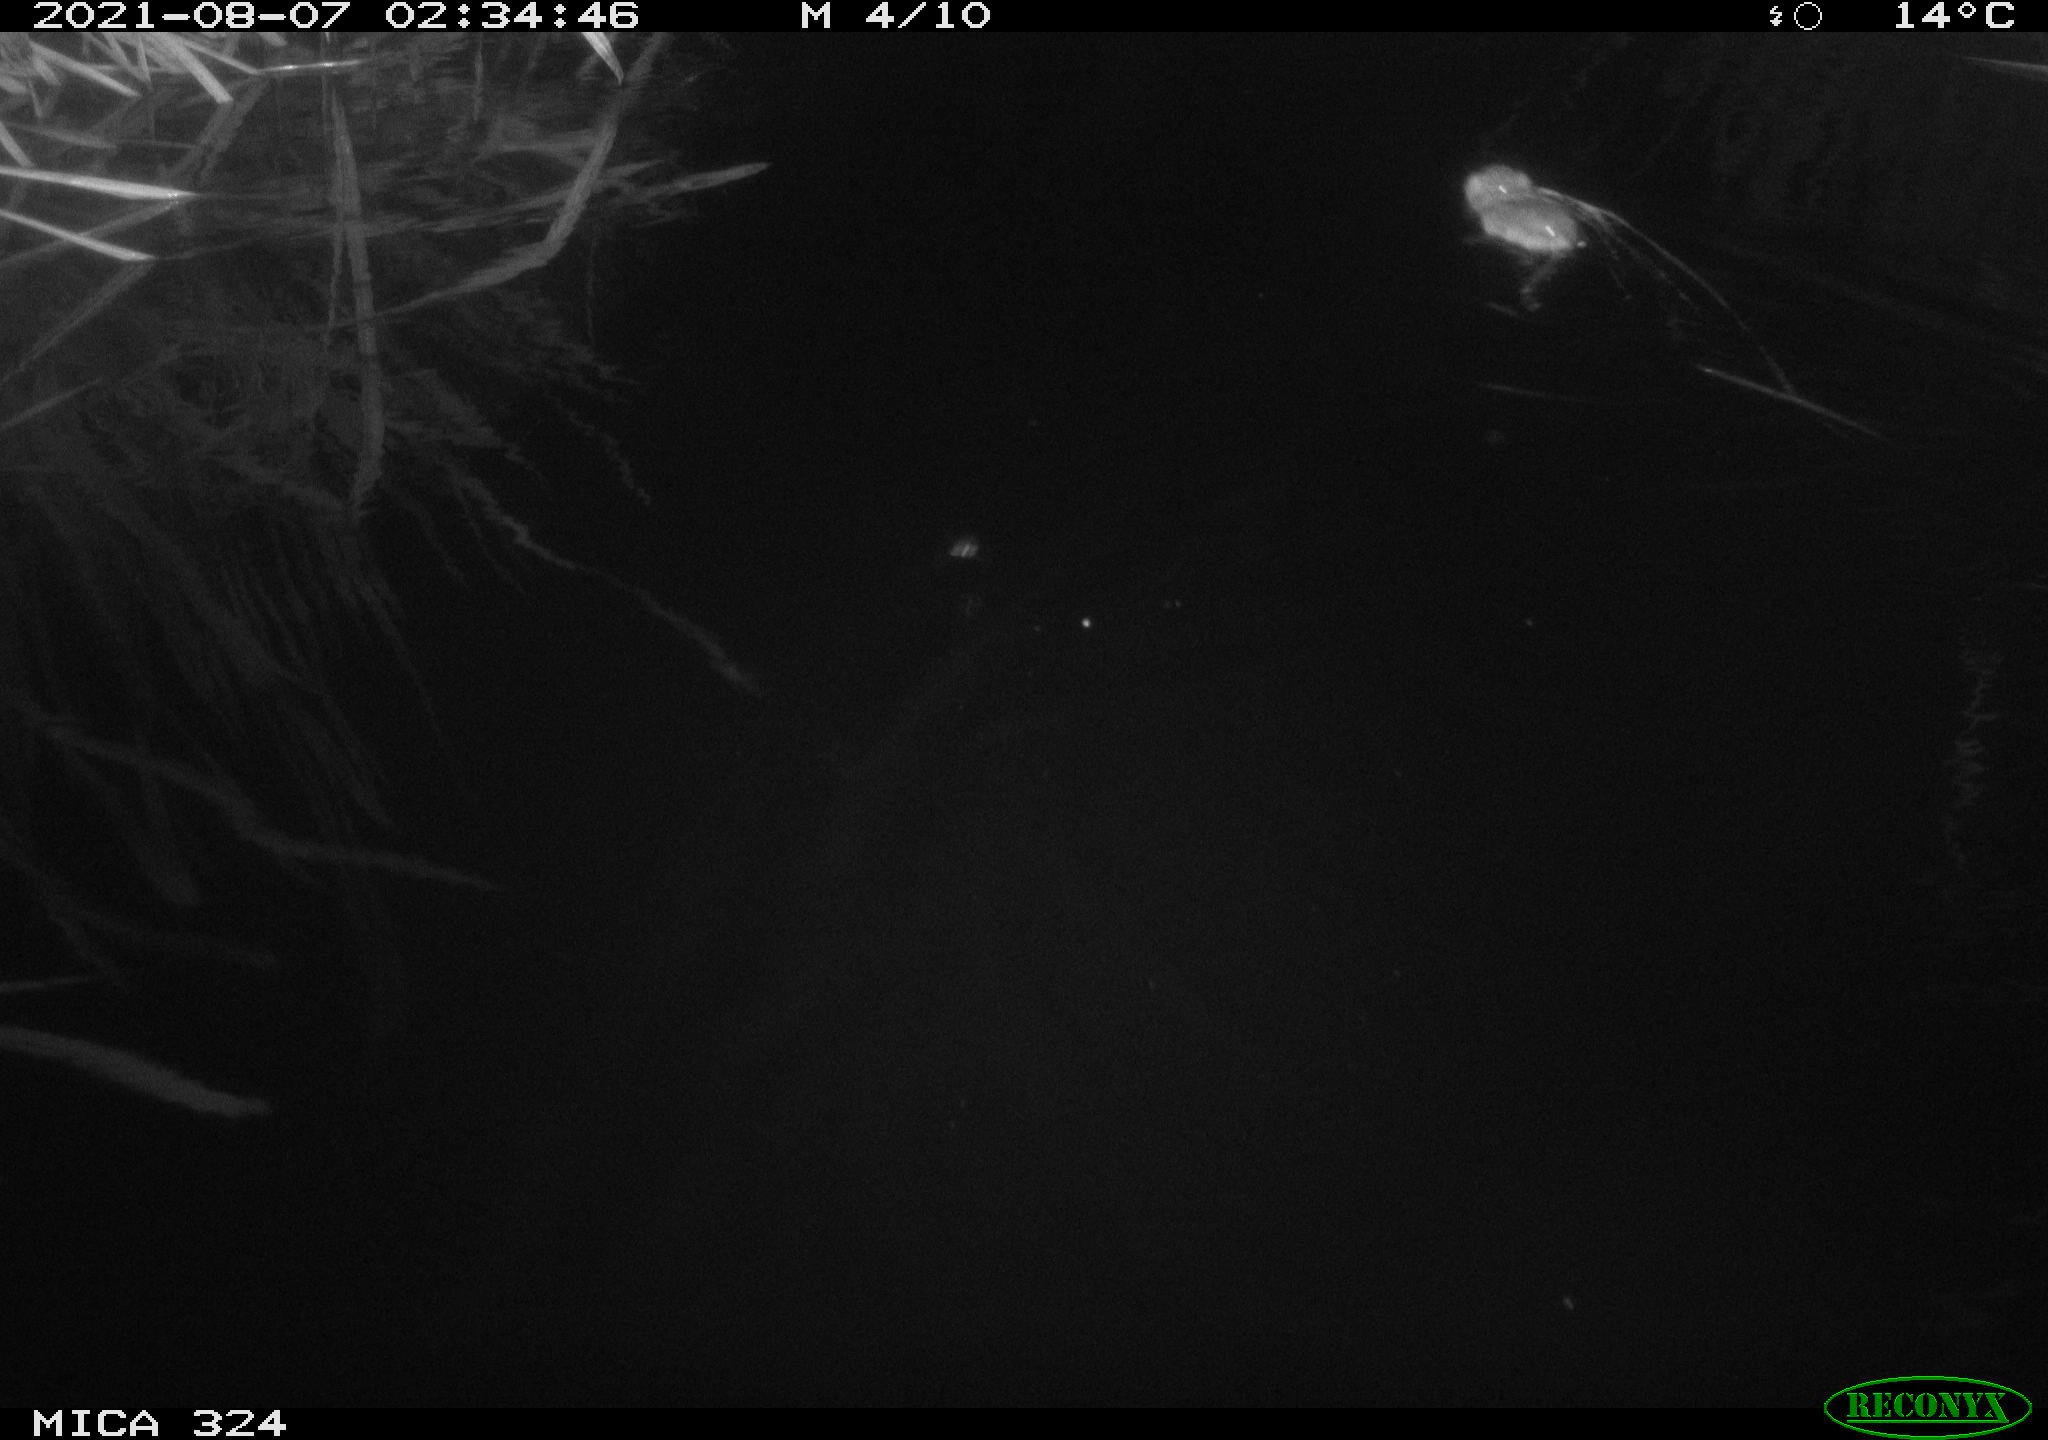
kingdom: Animalia
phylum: Chordata
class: Mammalia
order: Rodentia
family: Cricetidae
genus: Ondatra
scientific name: Ondatra zibethicus
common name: Muskrat
